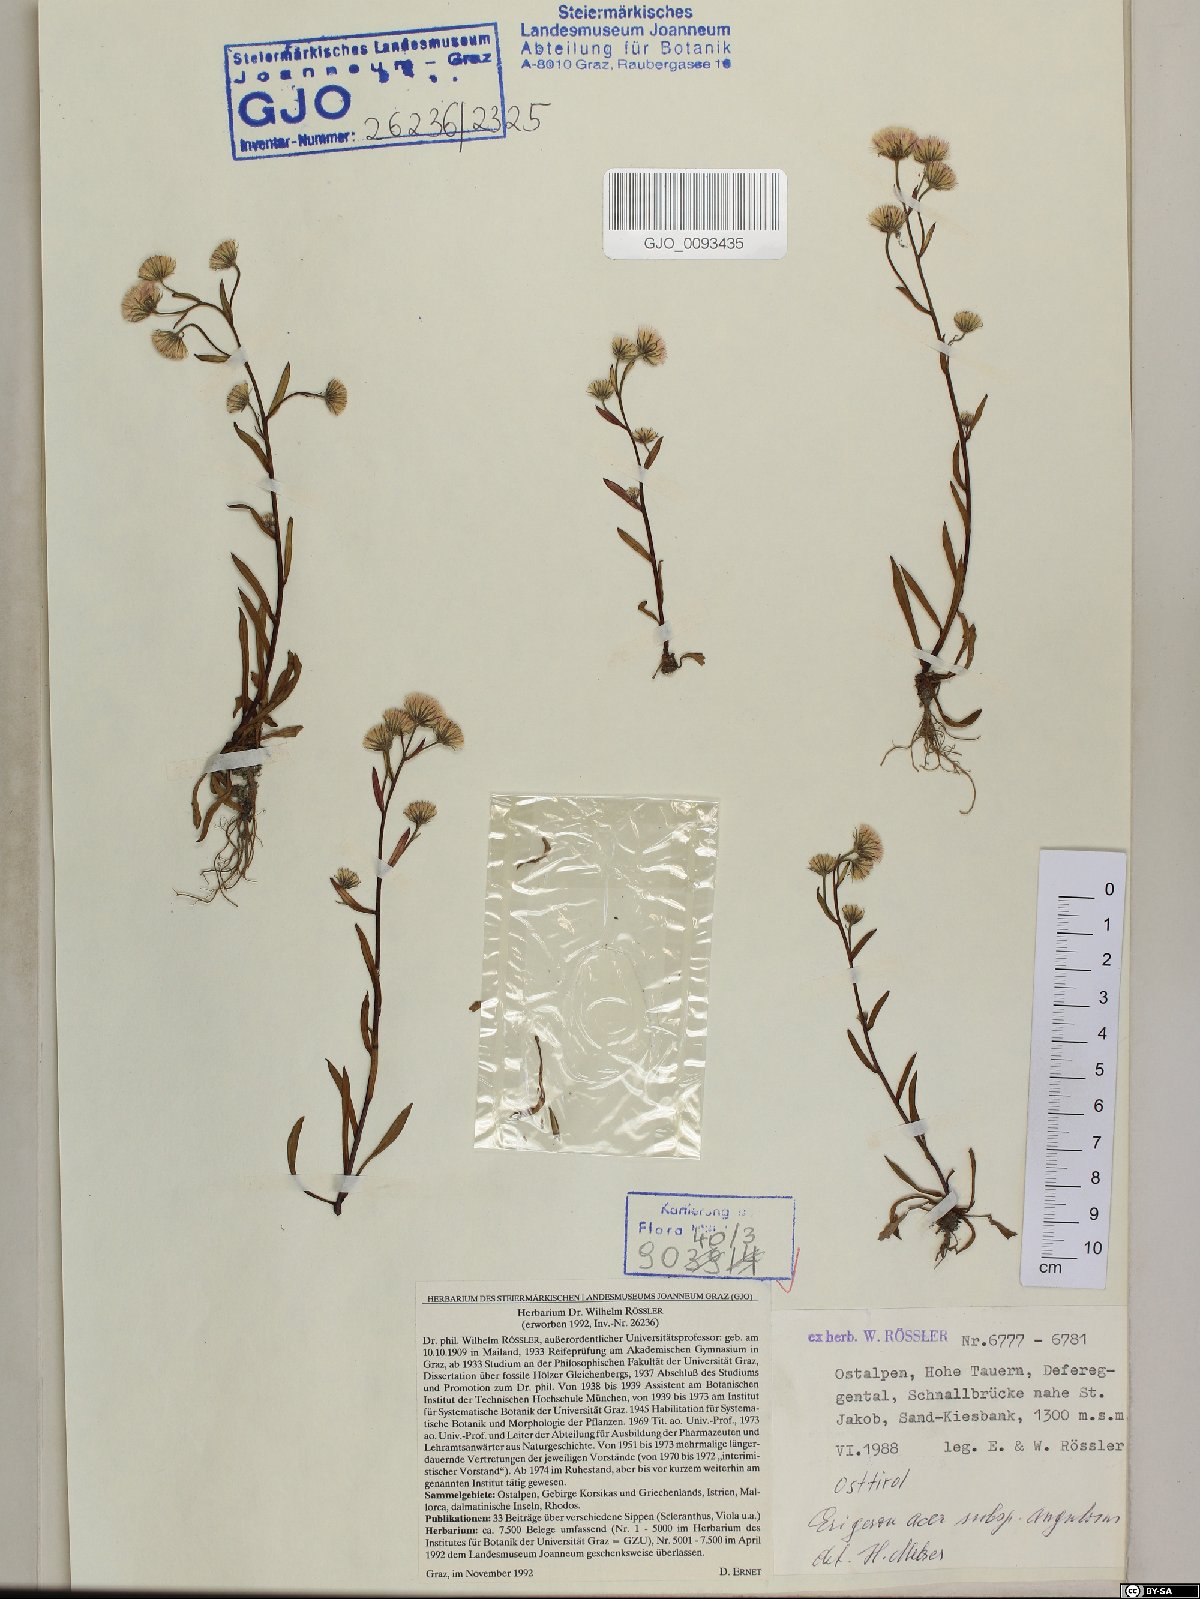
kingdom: Plantae
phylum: Tracheophyta
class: Magnoliopsida
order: Asterales
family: Asteraceae
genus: Erigeron
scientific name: Erigeron angulosus
